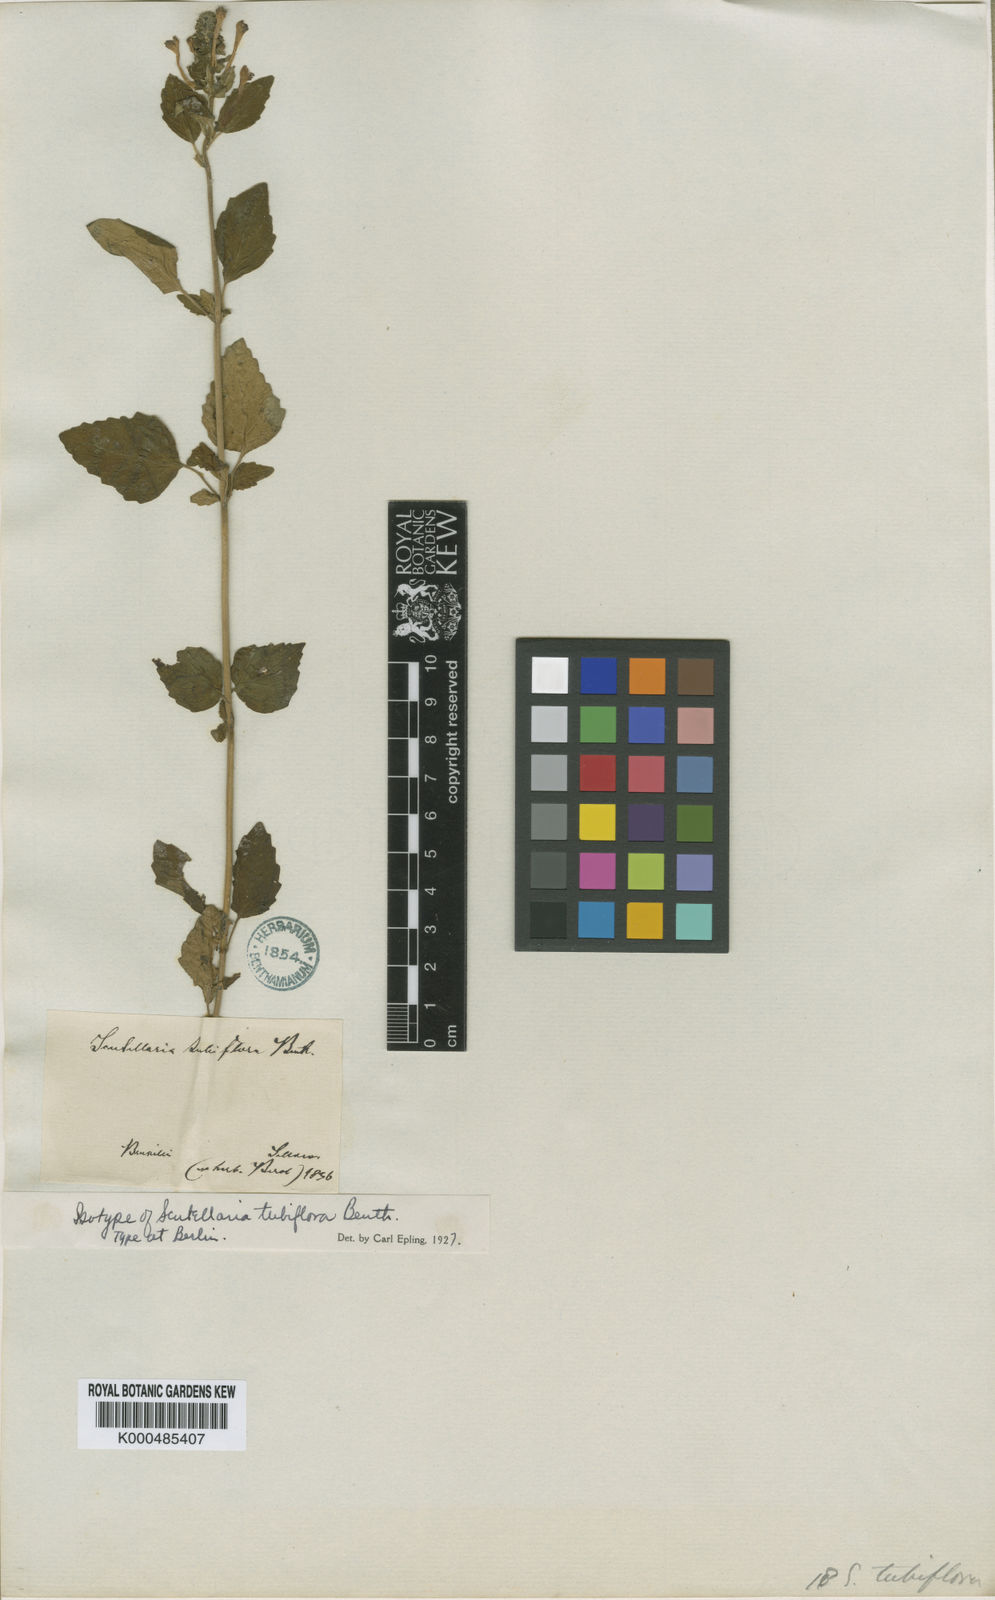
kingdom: Plantae
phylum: Tracheophyta
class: Magnoliopsida
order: Lamiales
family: Lamiaceae
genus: Scutellaria
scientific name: Scutellaria tubiflora
